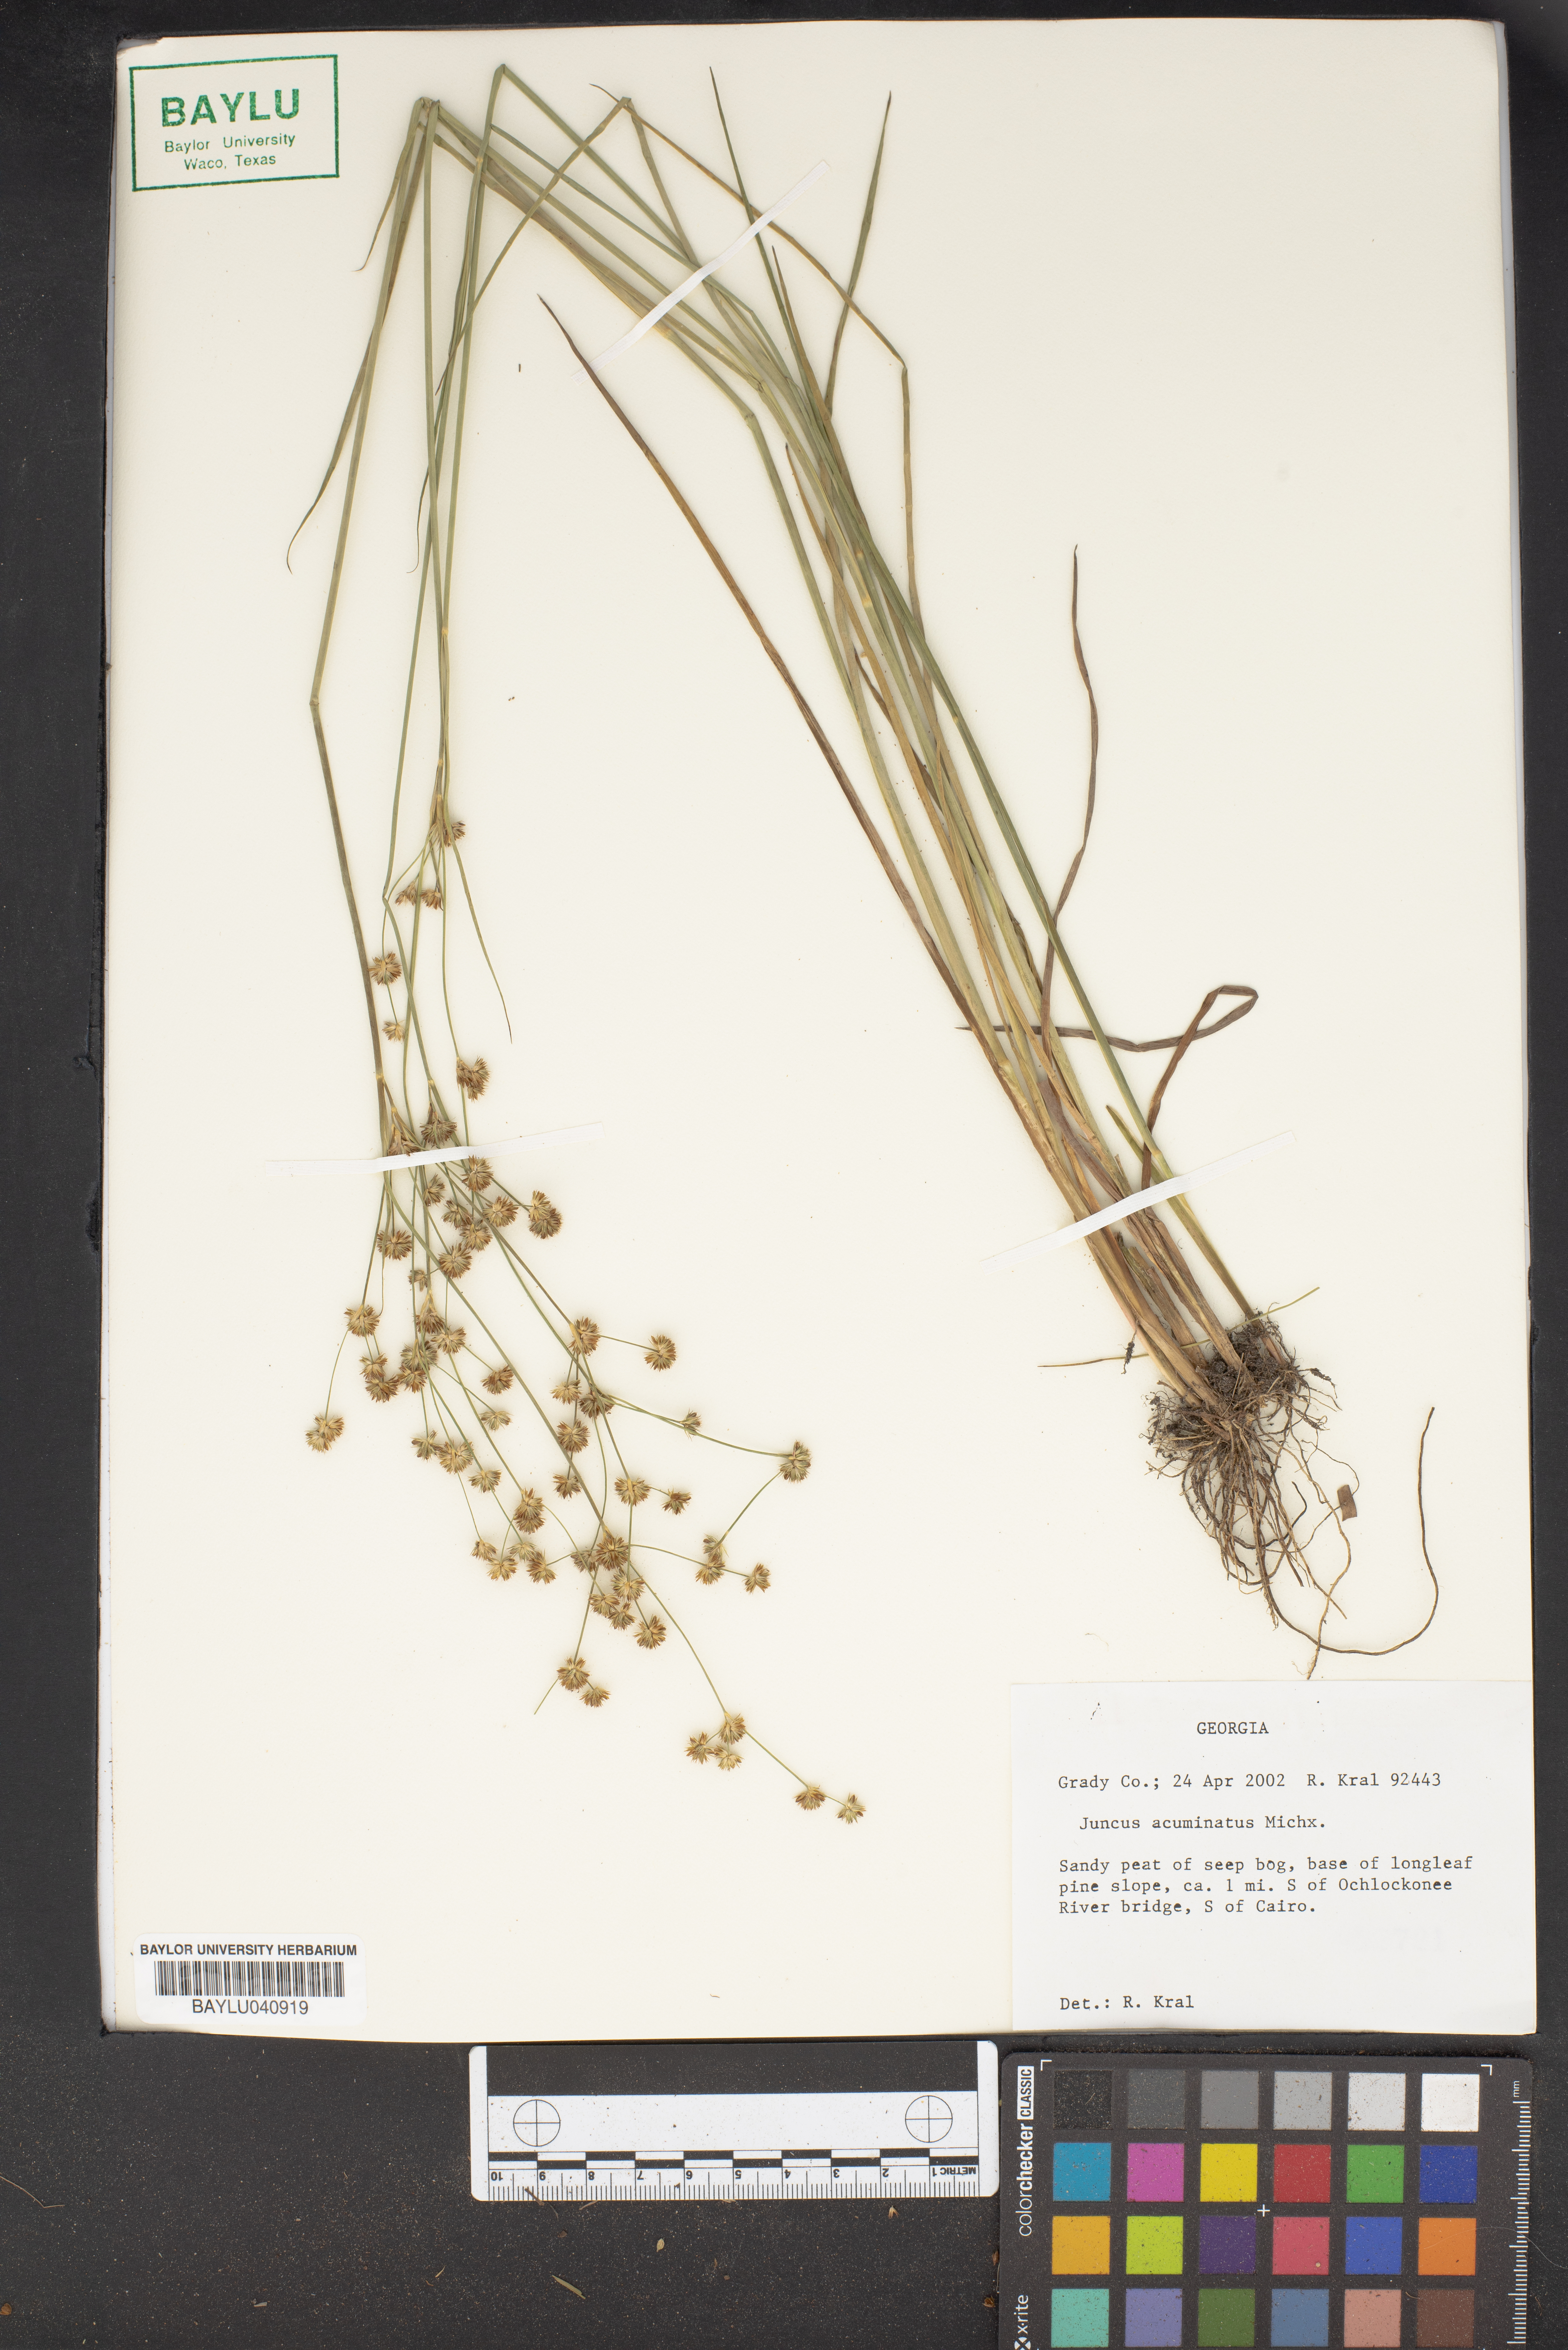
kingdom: Plantae
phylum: Tracheophyta
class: Liliopsida
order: Poales
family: Juncaceae
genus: Juncus
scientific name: Juncus acuminatus
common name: Knotty-leaved rush
